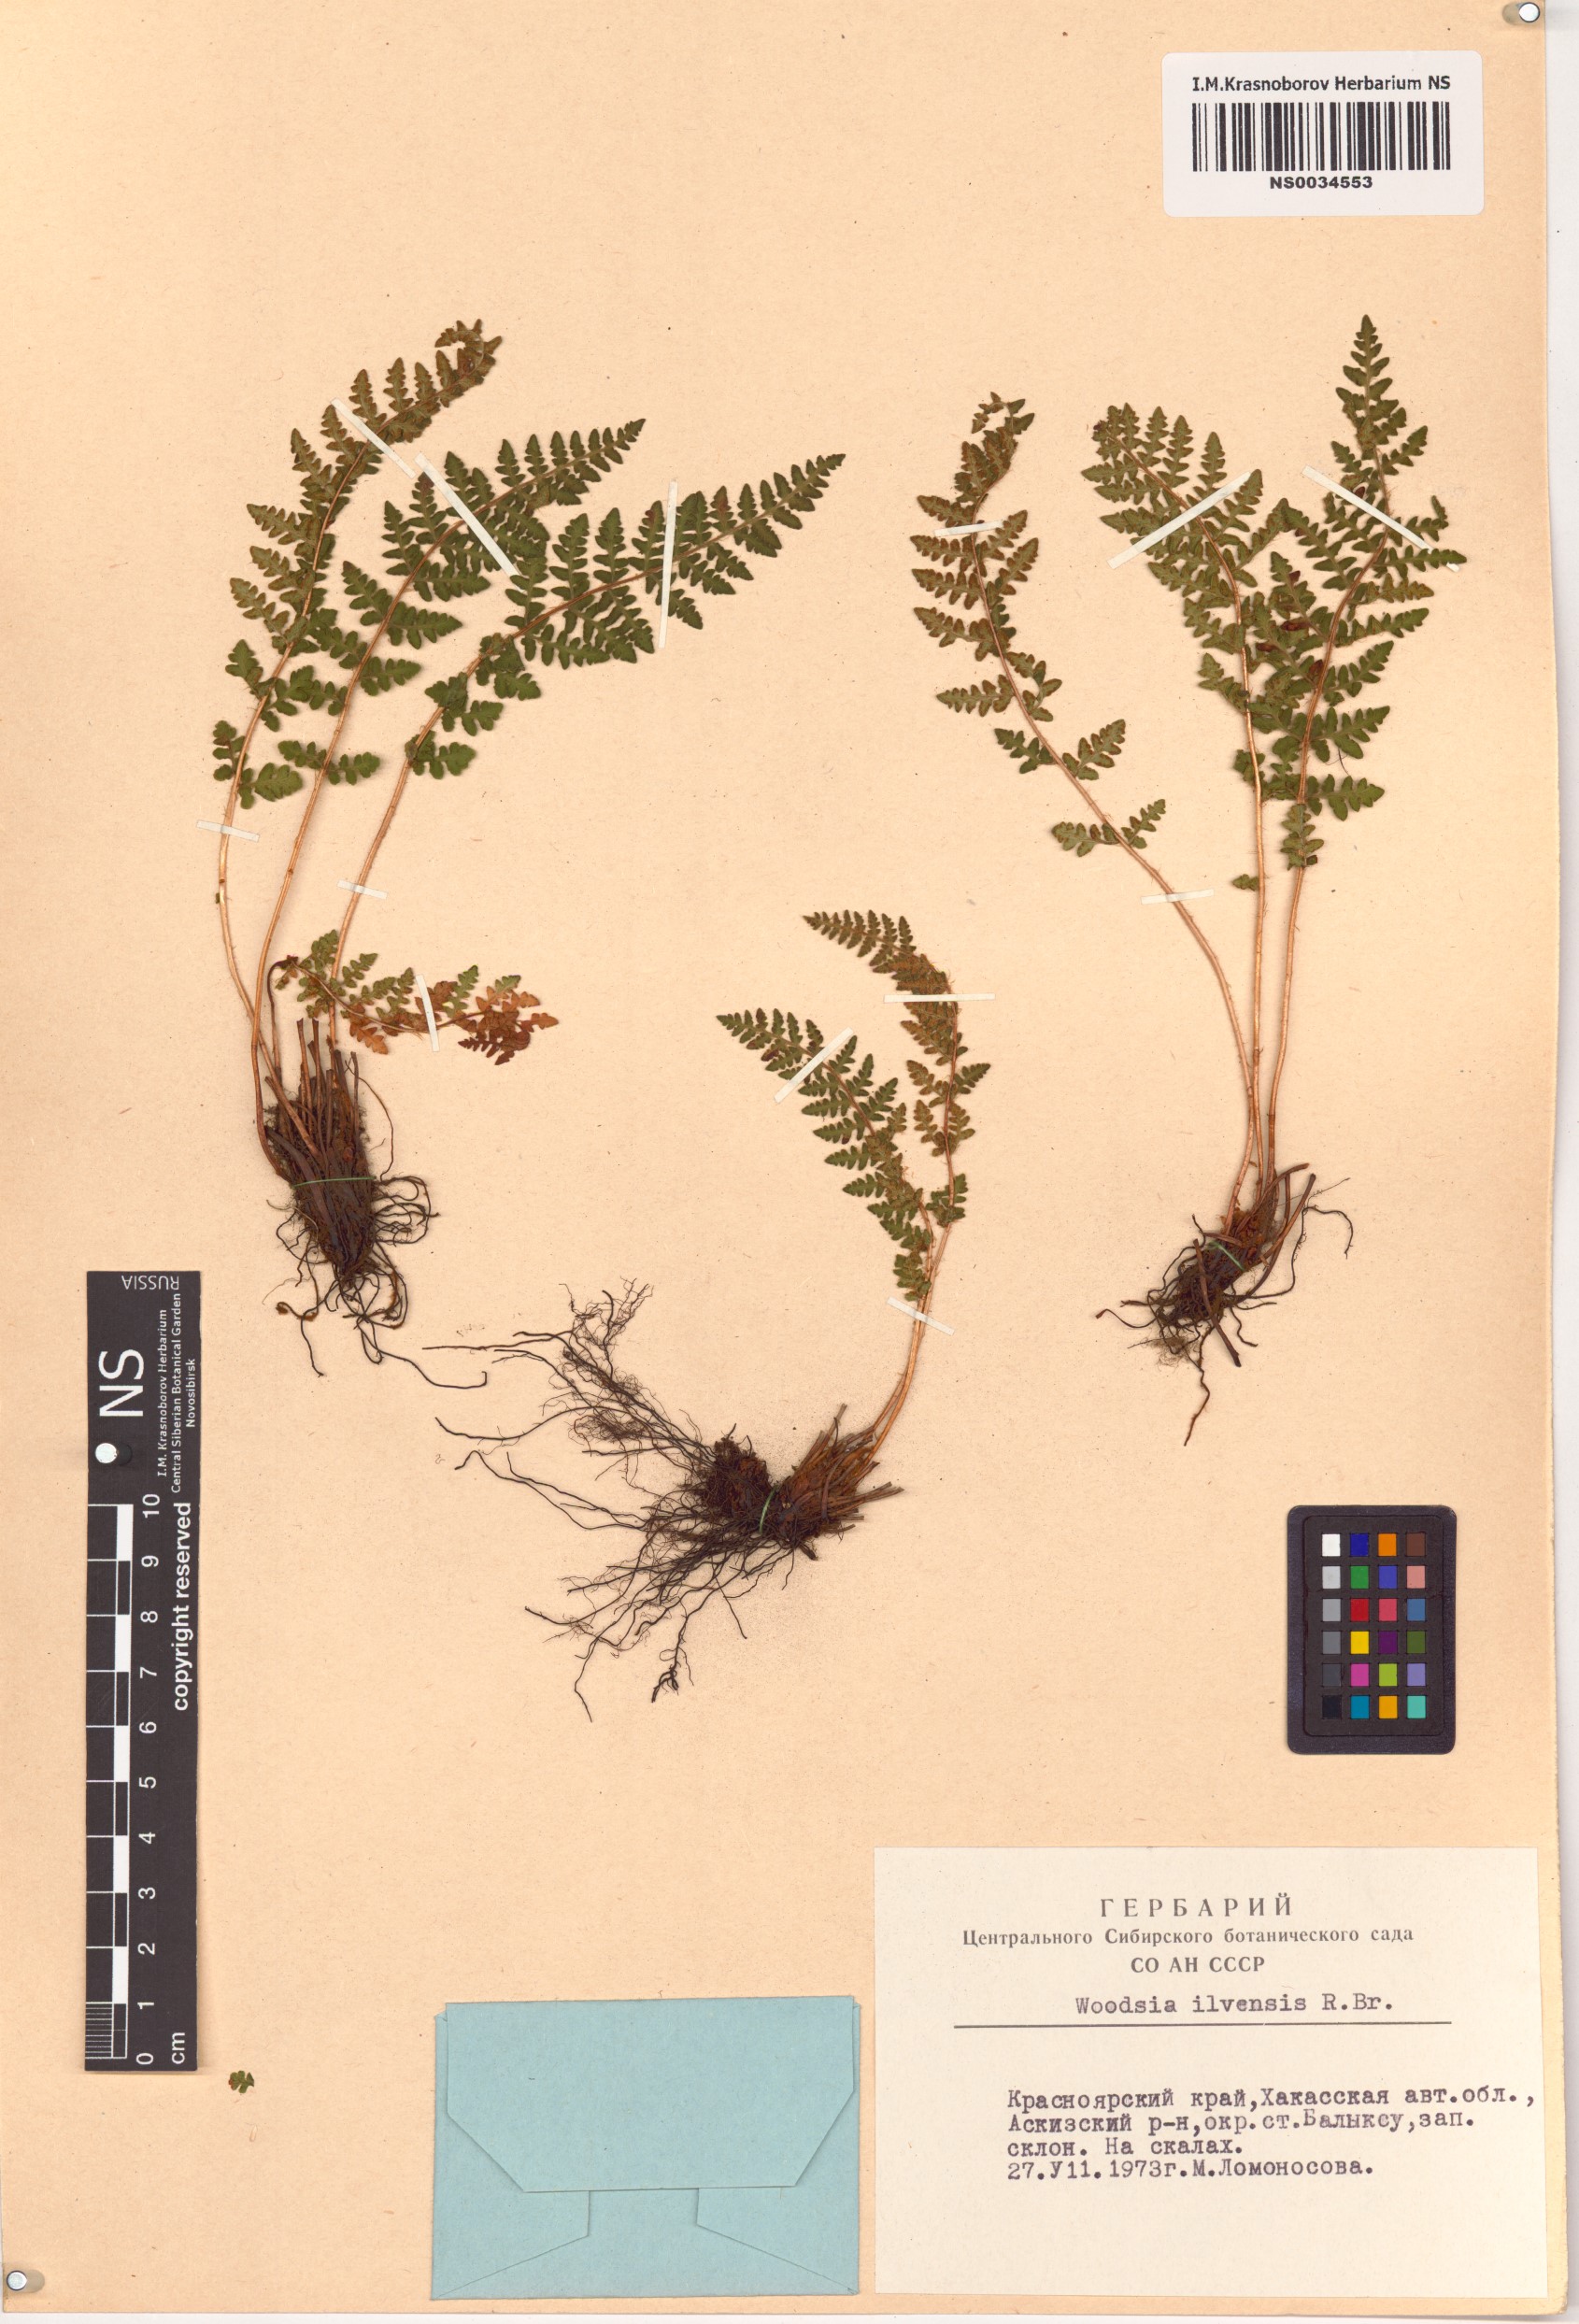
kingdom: Plantae
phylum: Tracheophyta
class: Polypodiopsida
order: Polypodiales
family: Woodsiaceae
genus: Woodsia
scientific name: Woodsia ilvensis
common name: Fragrant woodsia
